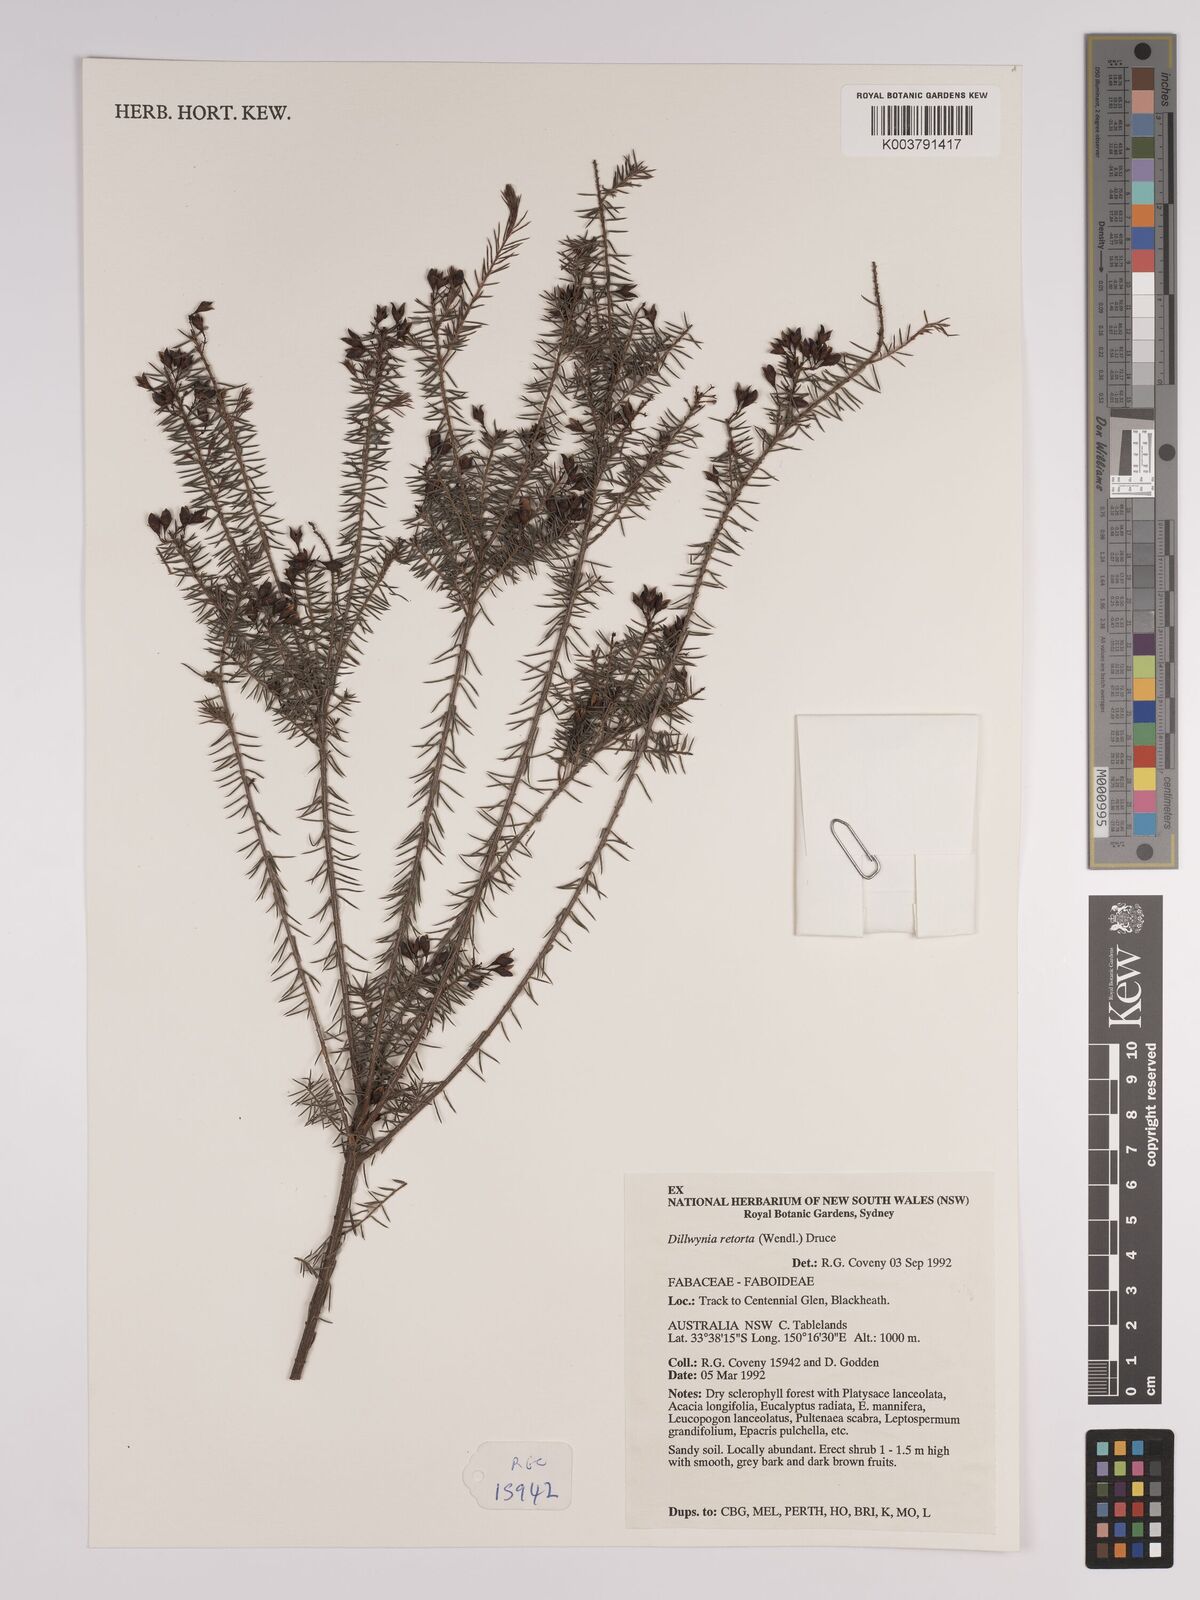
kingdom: Plantae
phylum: Tracheophyta
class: Magnoliopsida
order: Fabales
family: Fabaceae
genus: Dillwynia
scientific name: Dillwynia retorta
